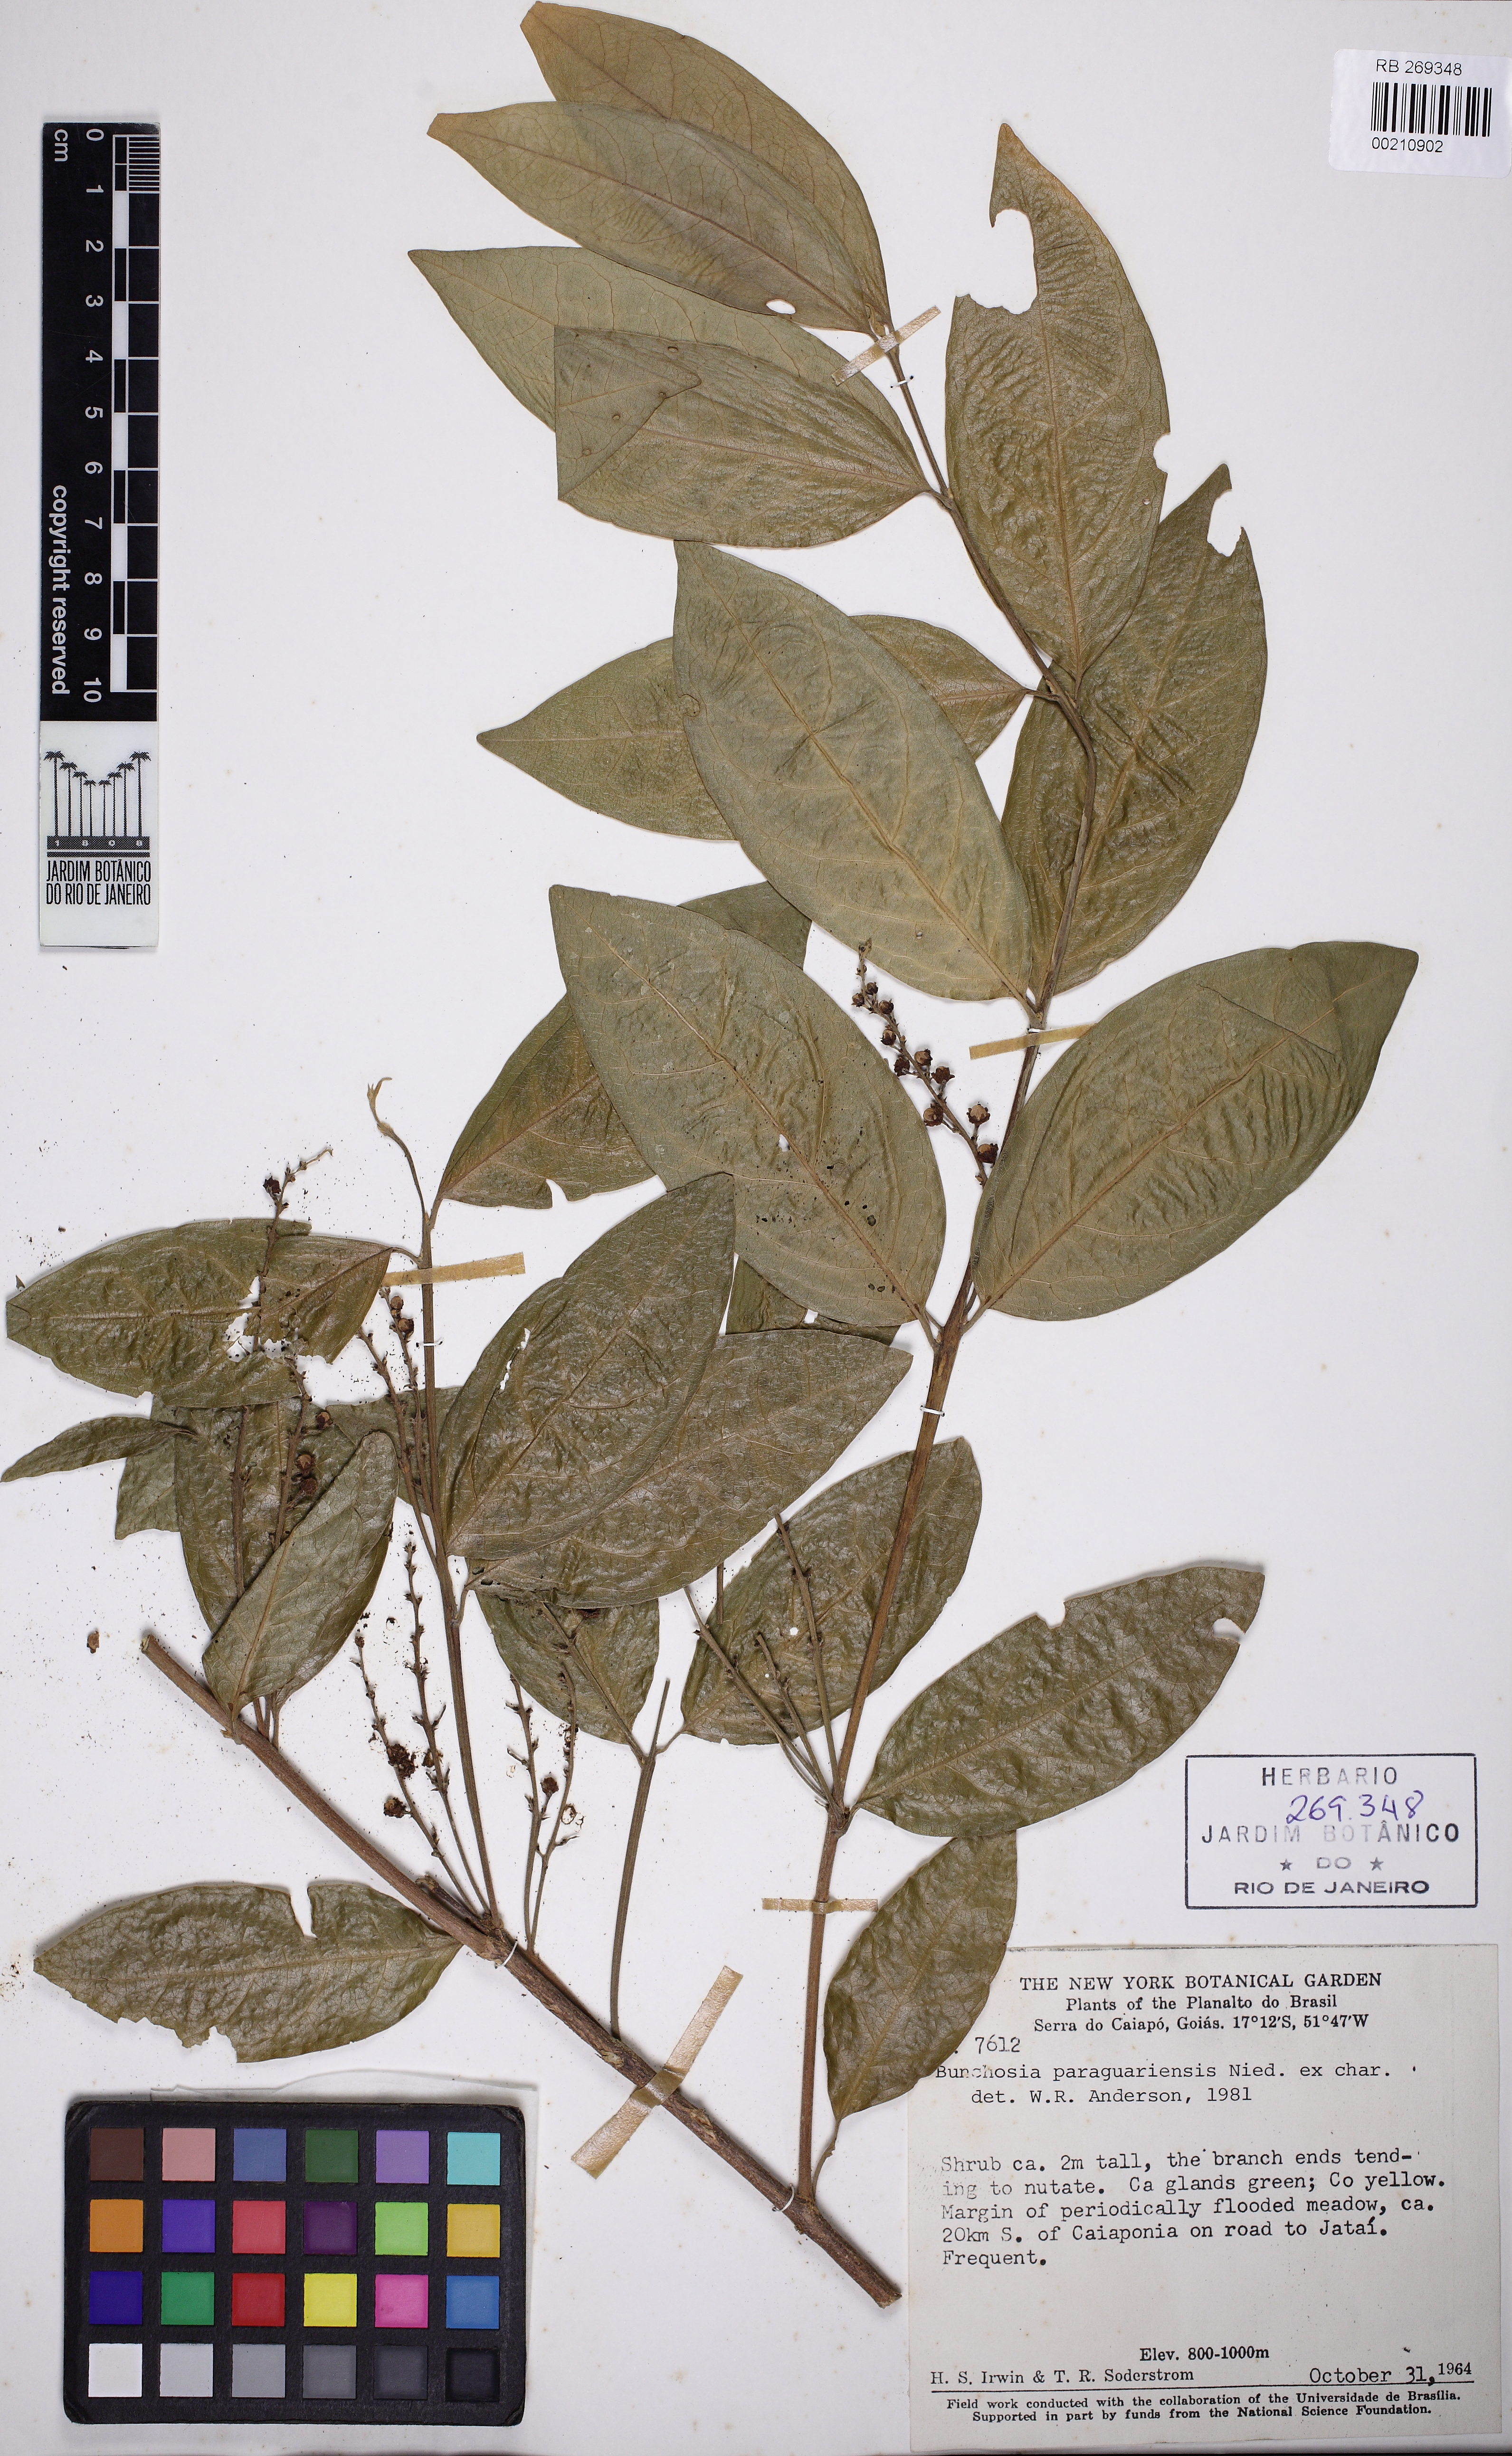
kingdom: Plantae
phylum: Tracheophyta
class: Magnoliopsida
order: Malpighiales
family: Malpighiaceae
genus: Bunchosia
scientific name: Bunchosia pallescens
